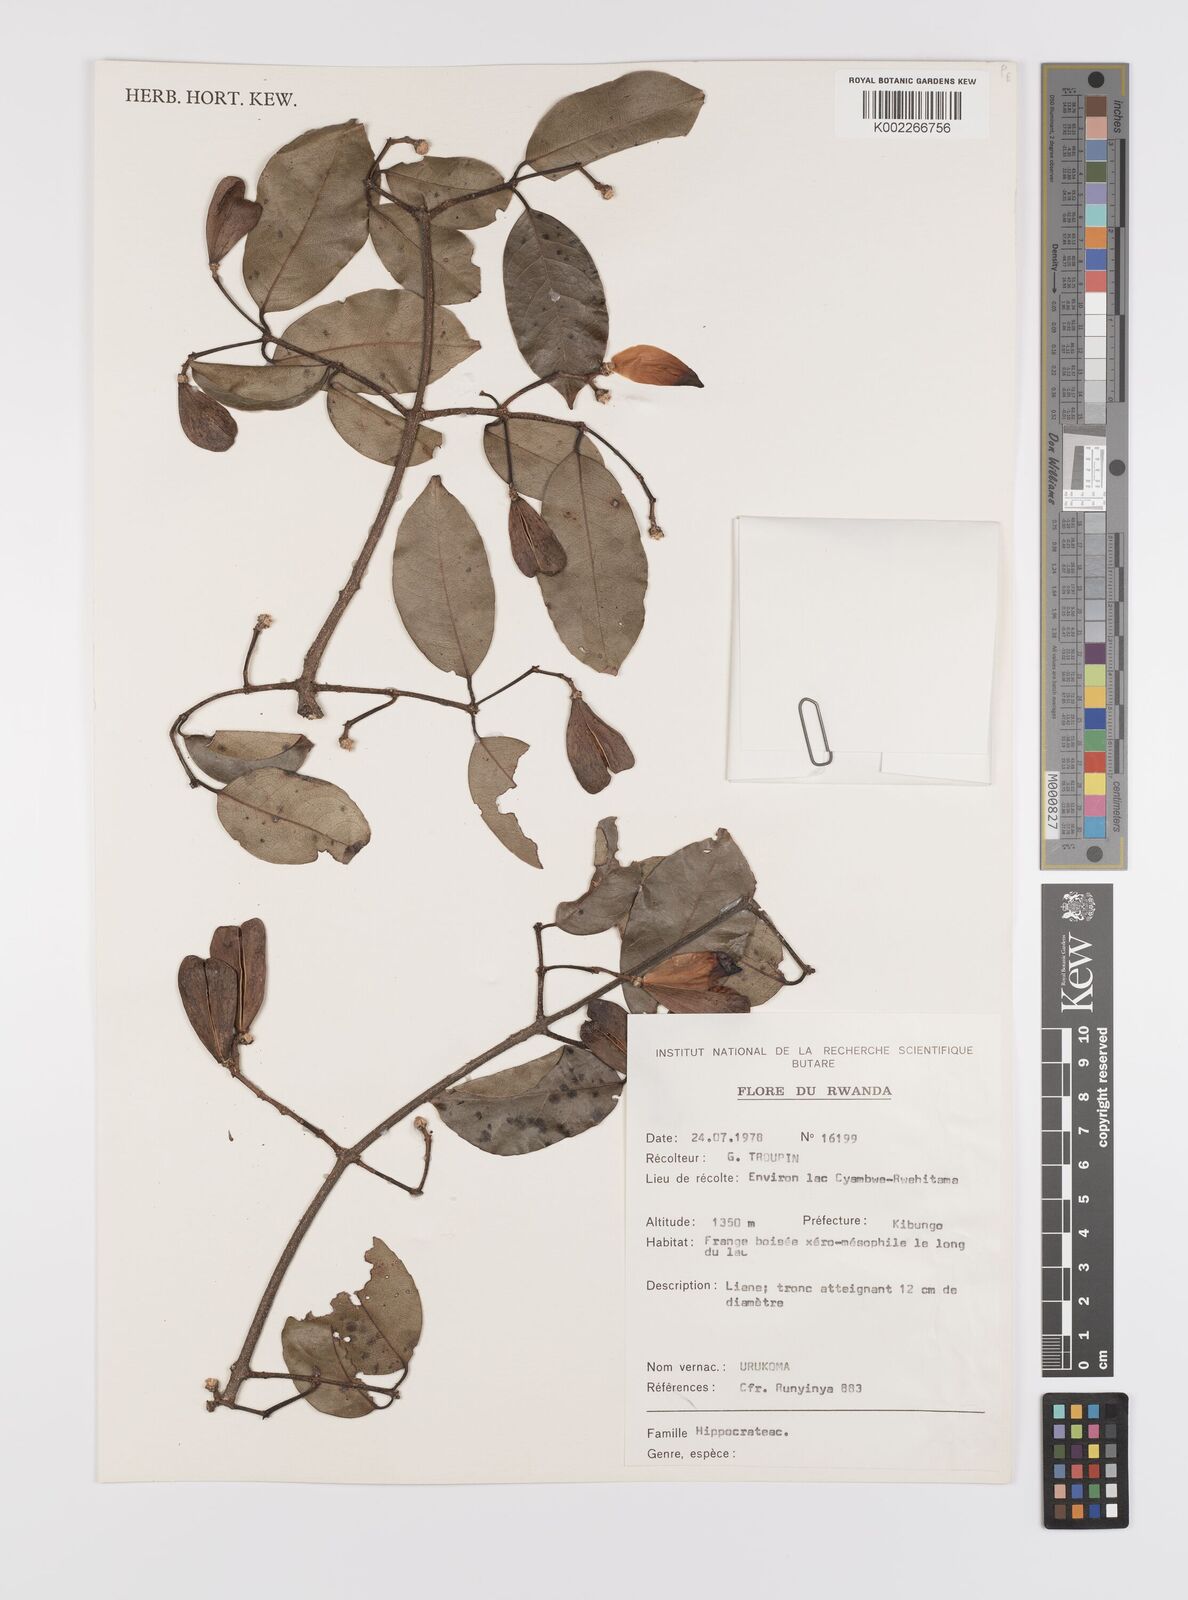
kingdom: Plantae
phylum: Tracheophyta
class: Magnoliopsida
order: Celastrales
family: Celastraceae
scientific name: Celastraceae
